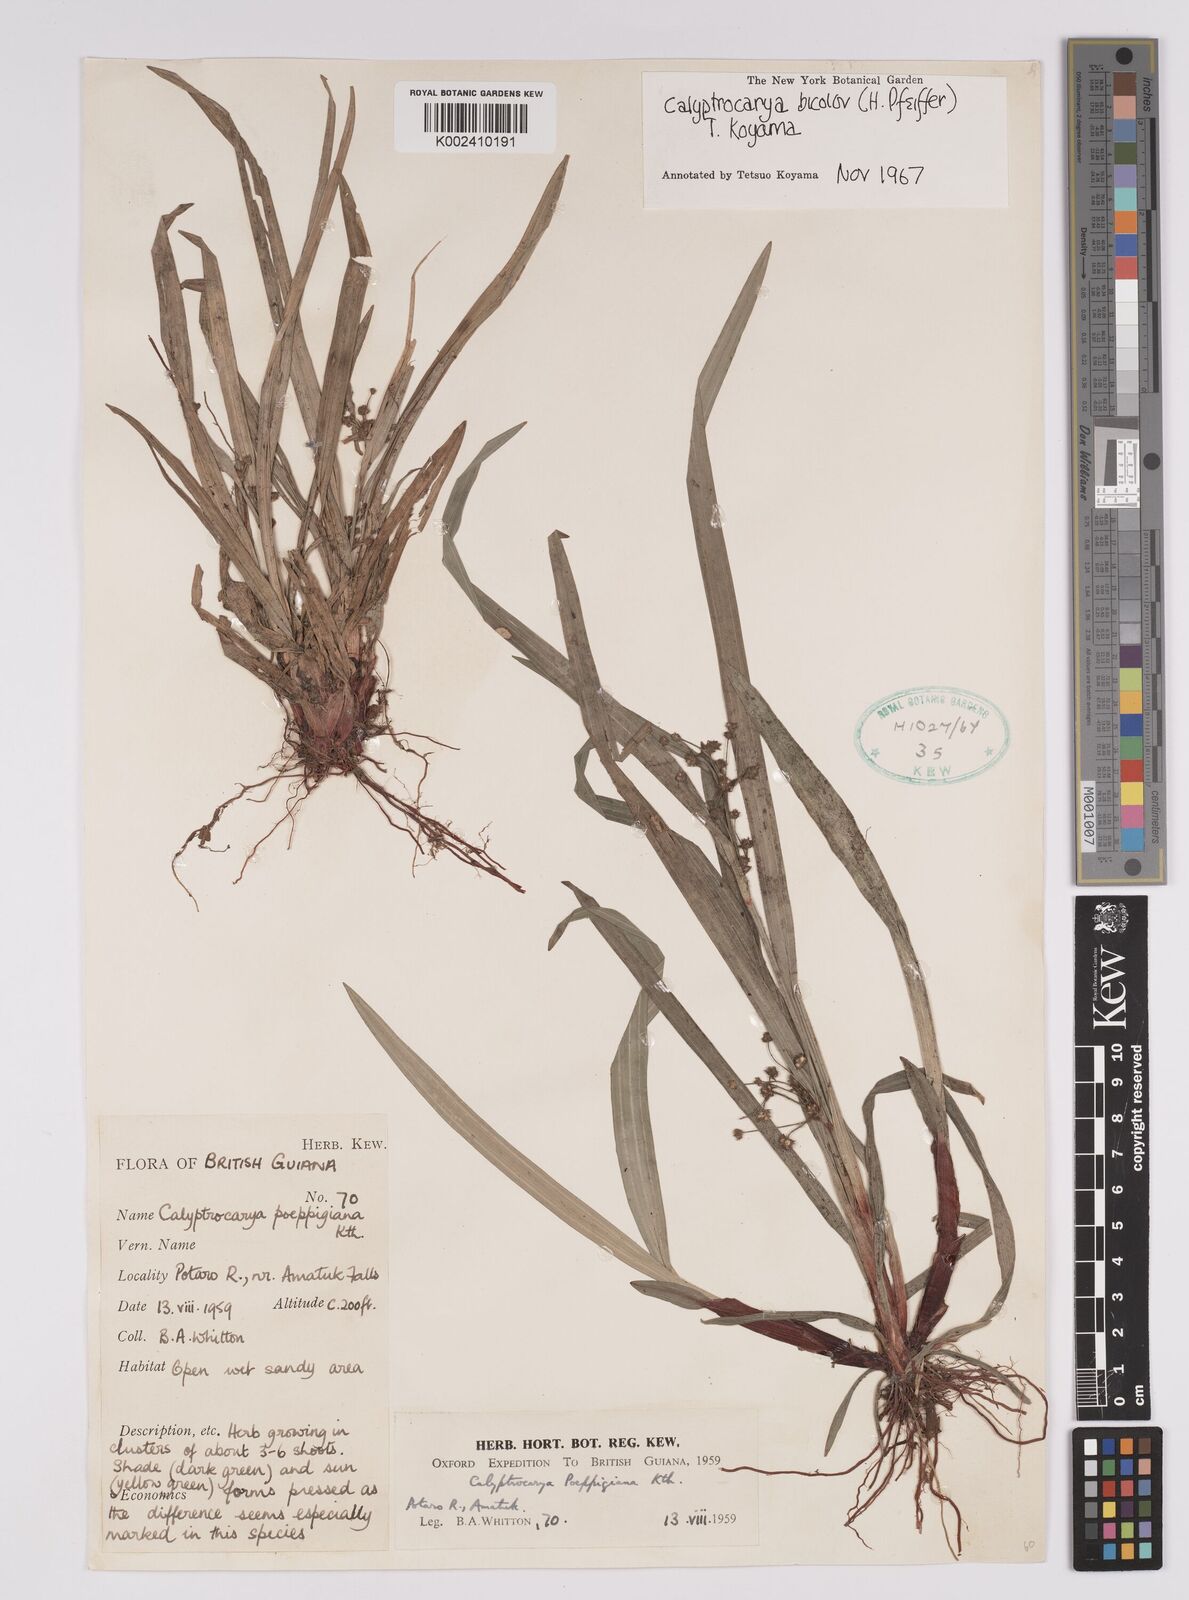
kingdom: Plantae
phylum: Tracheophyta
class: Liliopsida
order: Poales
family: Cyperaceae
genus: Calyptrocarya
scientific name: Calyptrocarya bicolor
